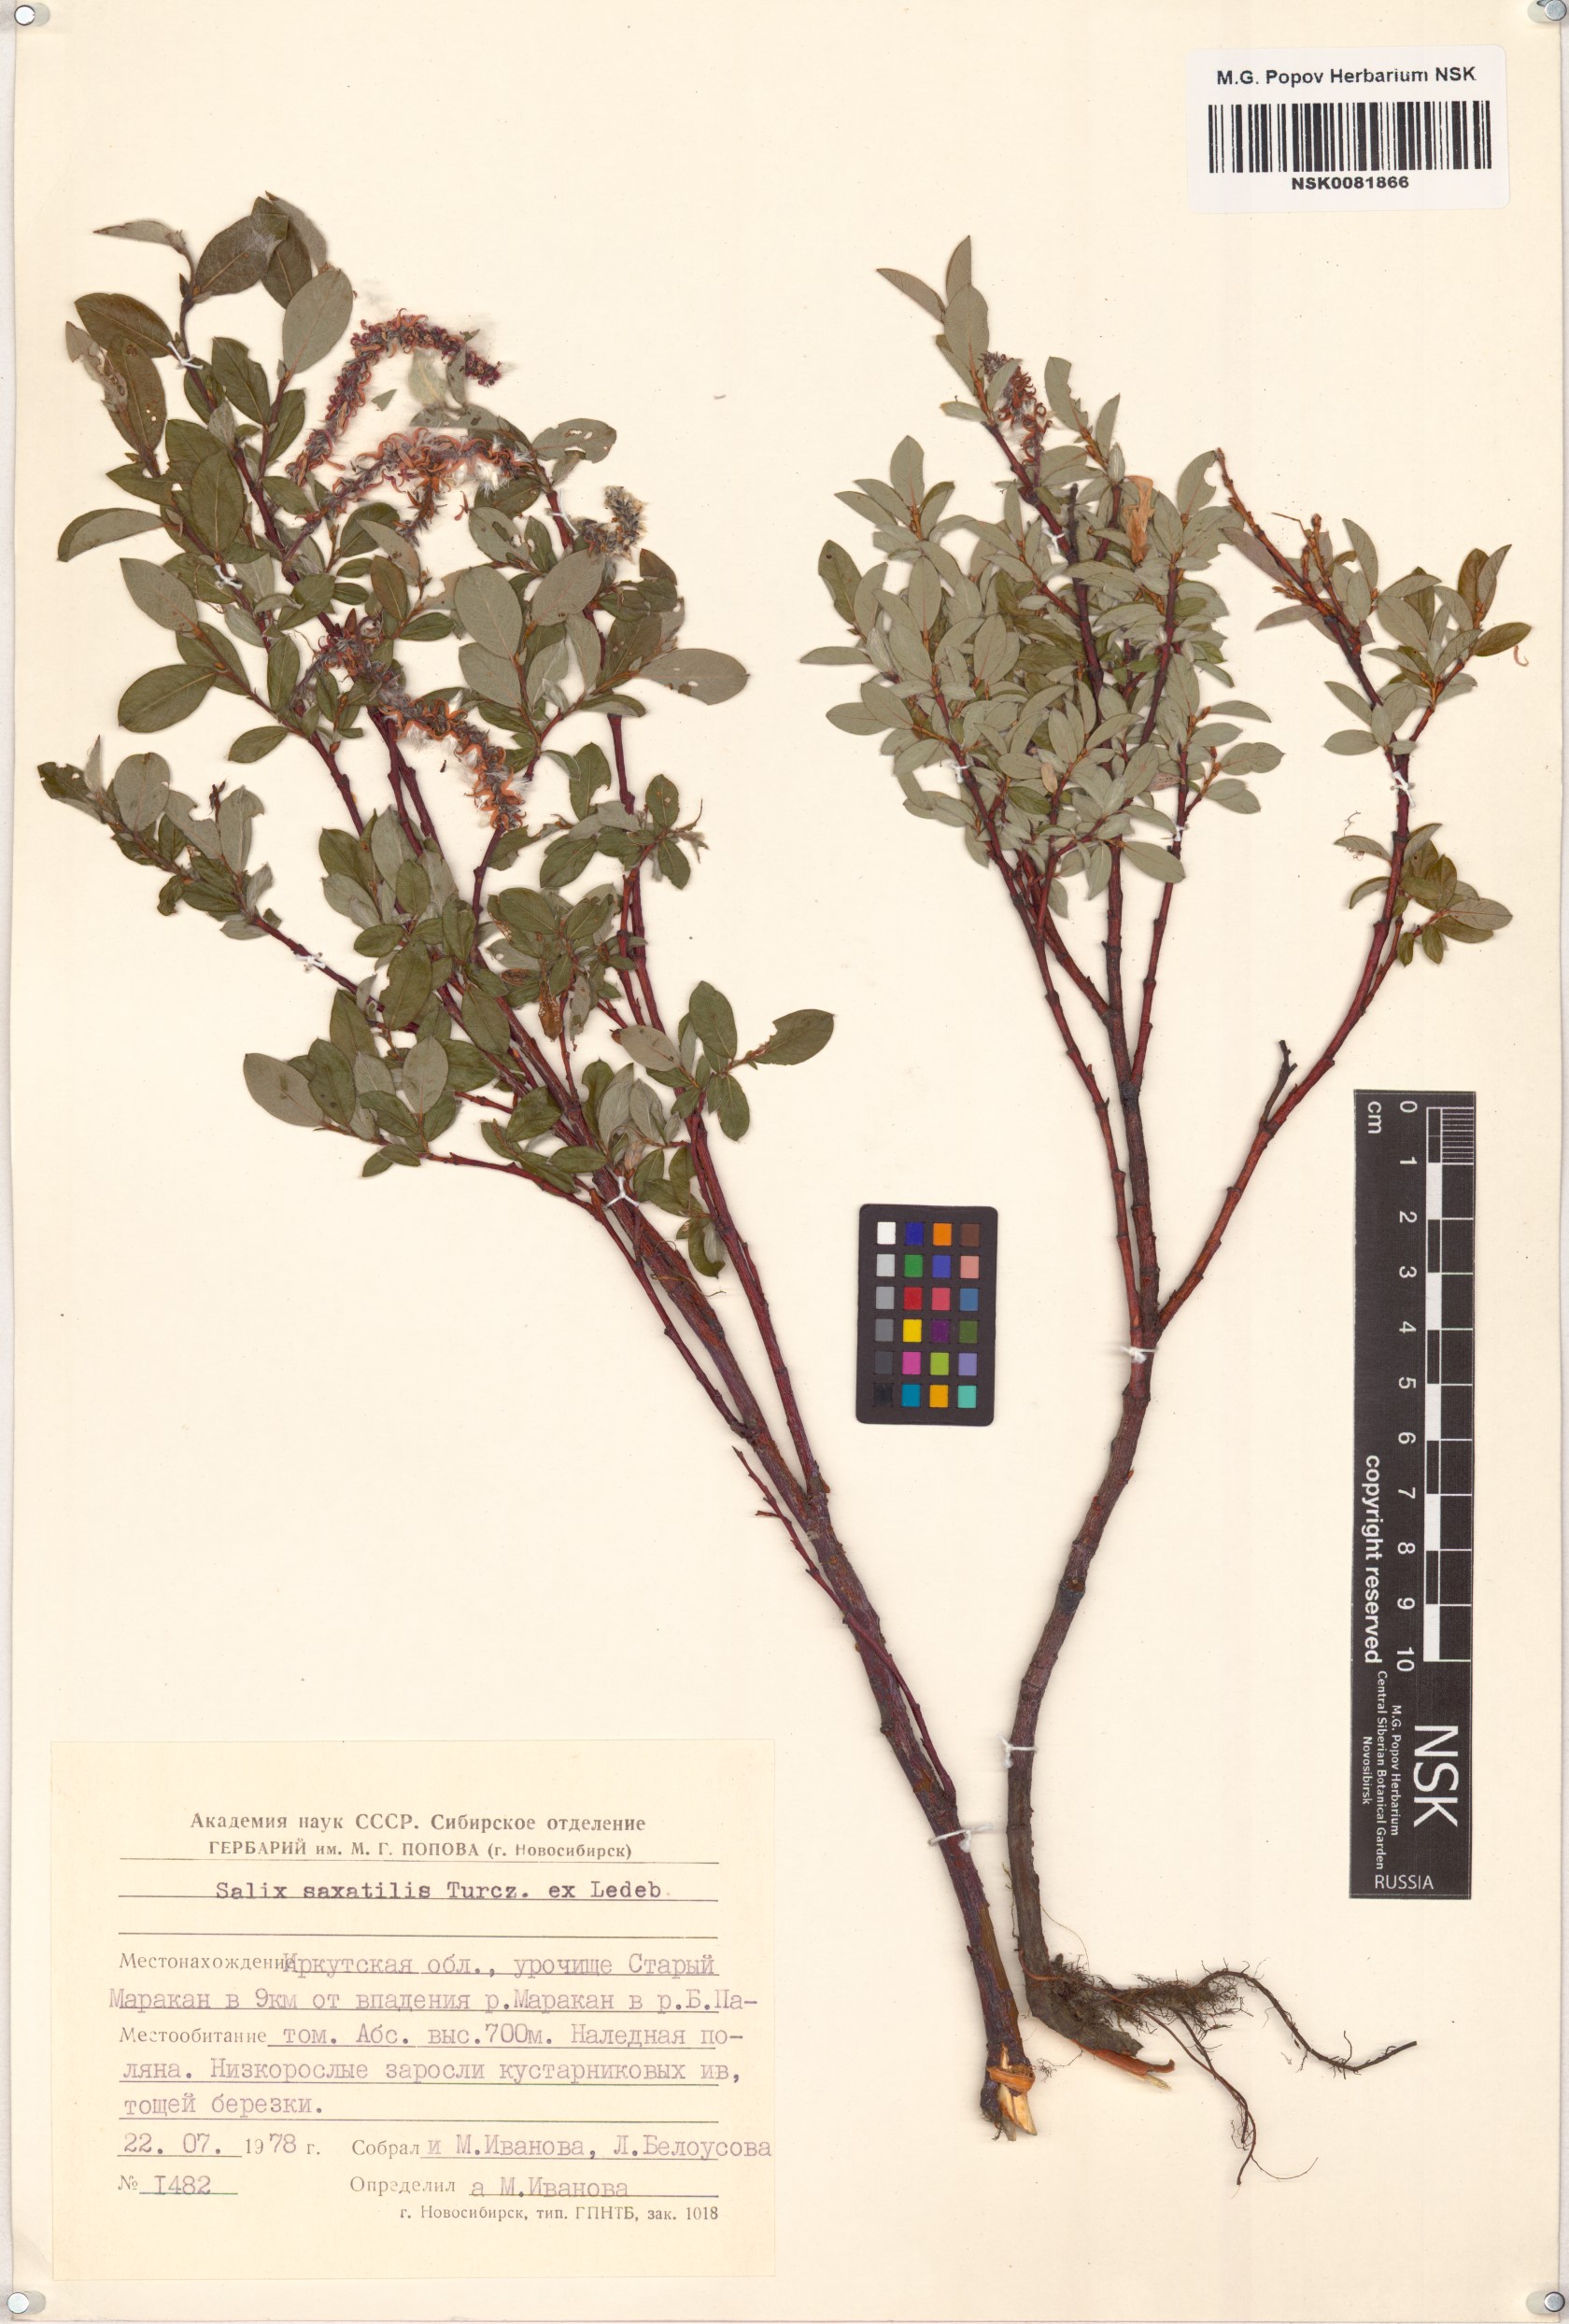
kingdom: Plantae
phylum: Tracheophyta
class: Magnoliopsida
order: Malpighiales
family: Salicaceae
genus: Salix
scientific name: Salix saxatilis
